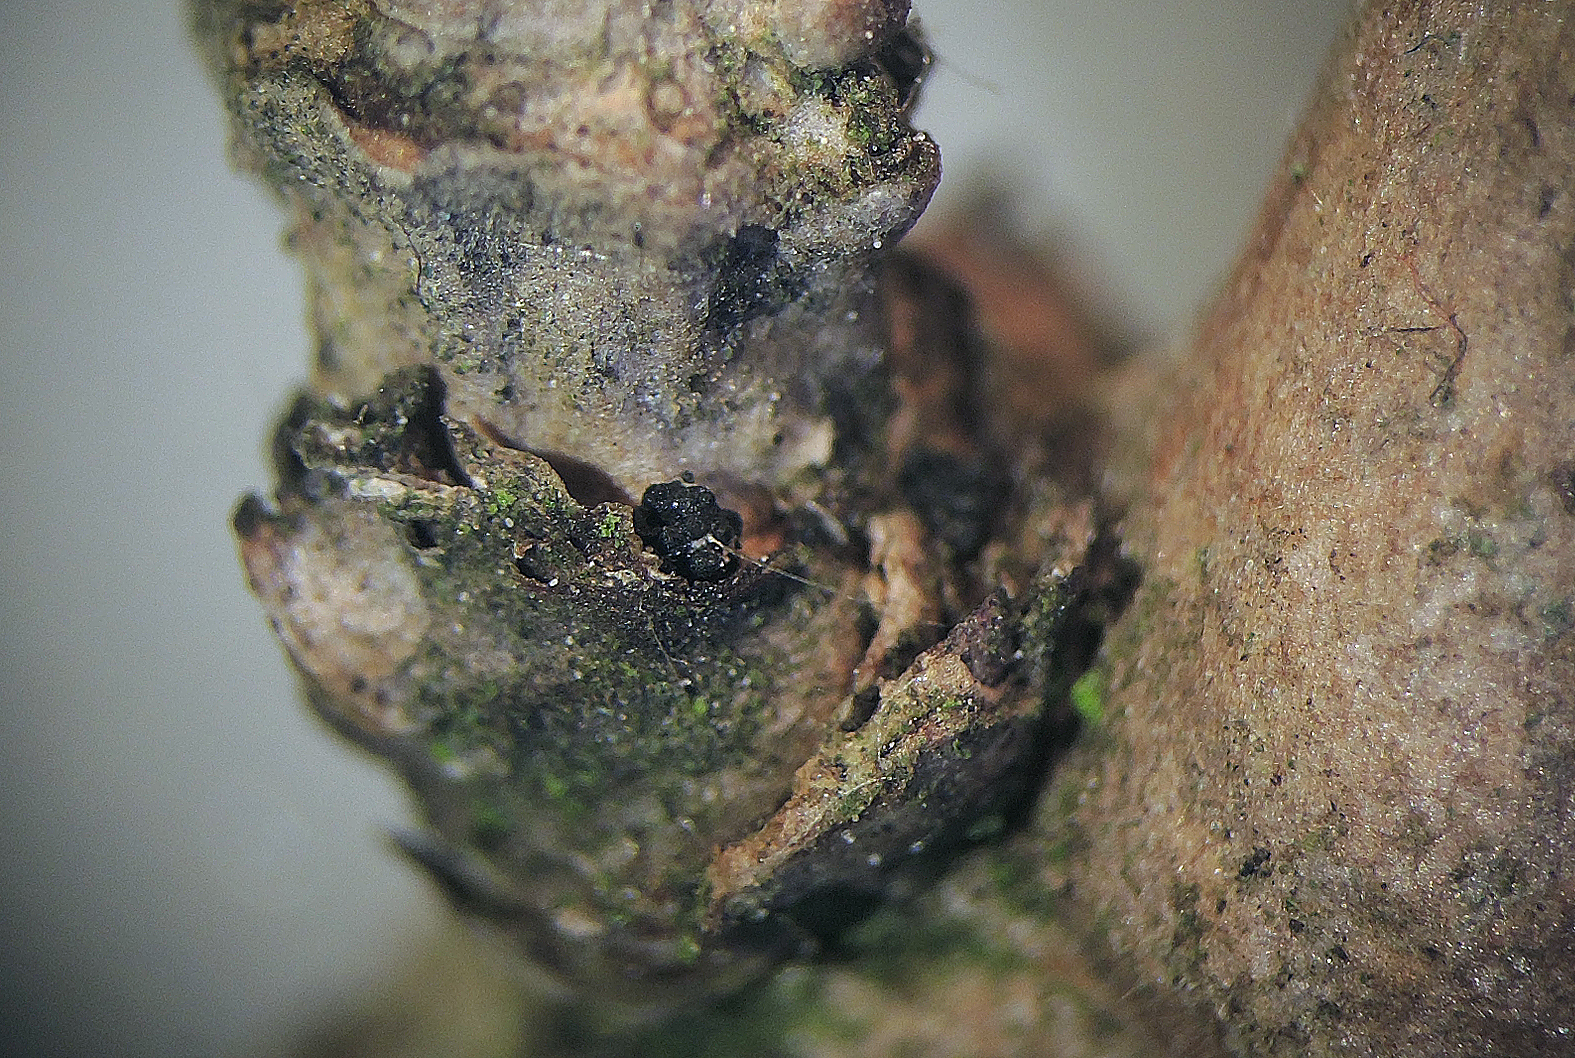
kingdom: Fungi
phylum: Ascomycota
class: Sordariomycetes
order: Hypocreales
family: Nectriaceae
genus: Fusarium
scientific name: Fusarium roseum
